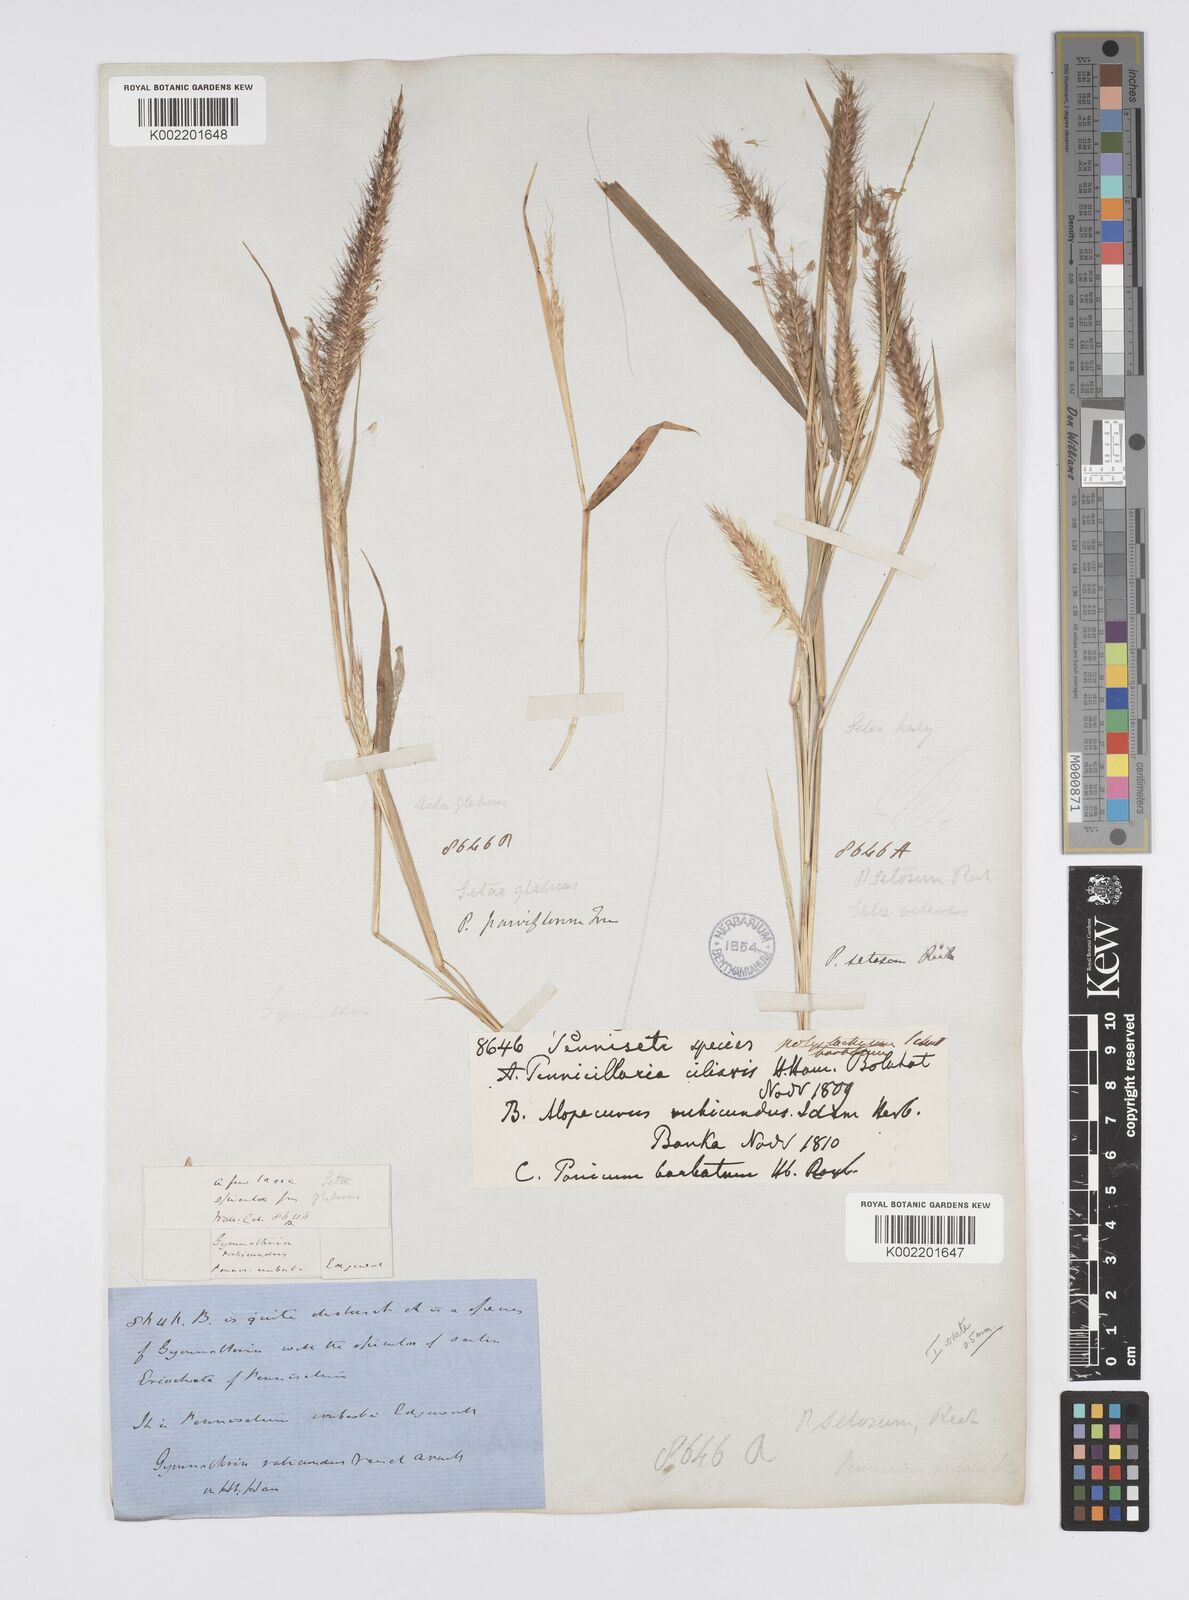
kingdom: Plantae
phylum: Tracheophyta
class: Liliopsida
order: Poales
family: Poaceae
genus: Setaria
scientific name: Setaria parviflora
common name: Knotroot bristle-grass
